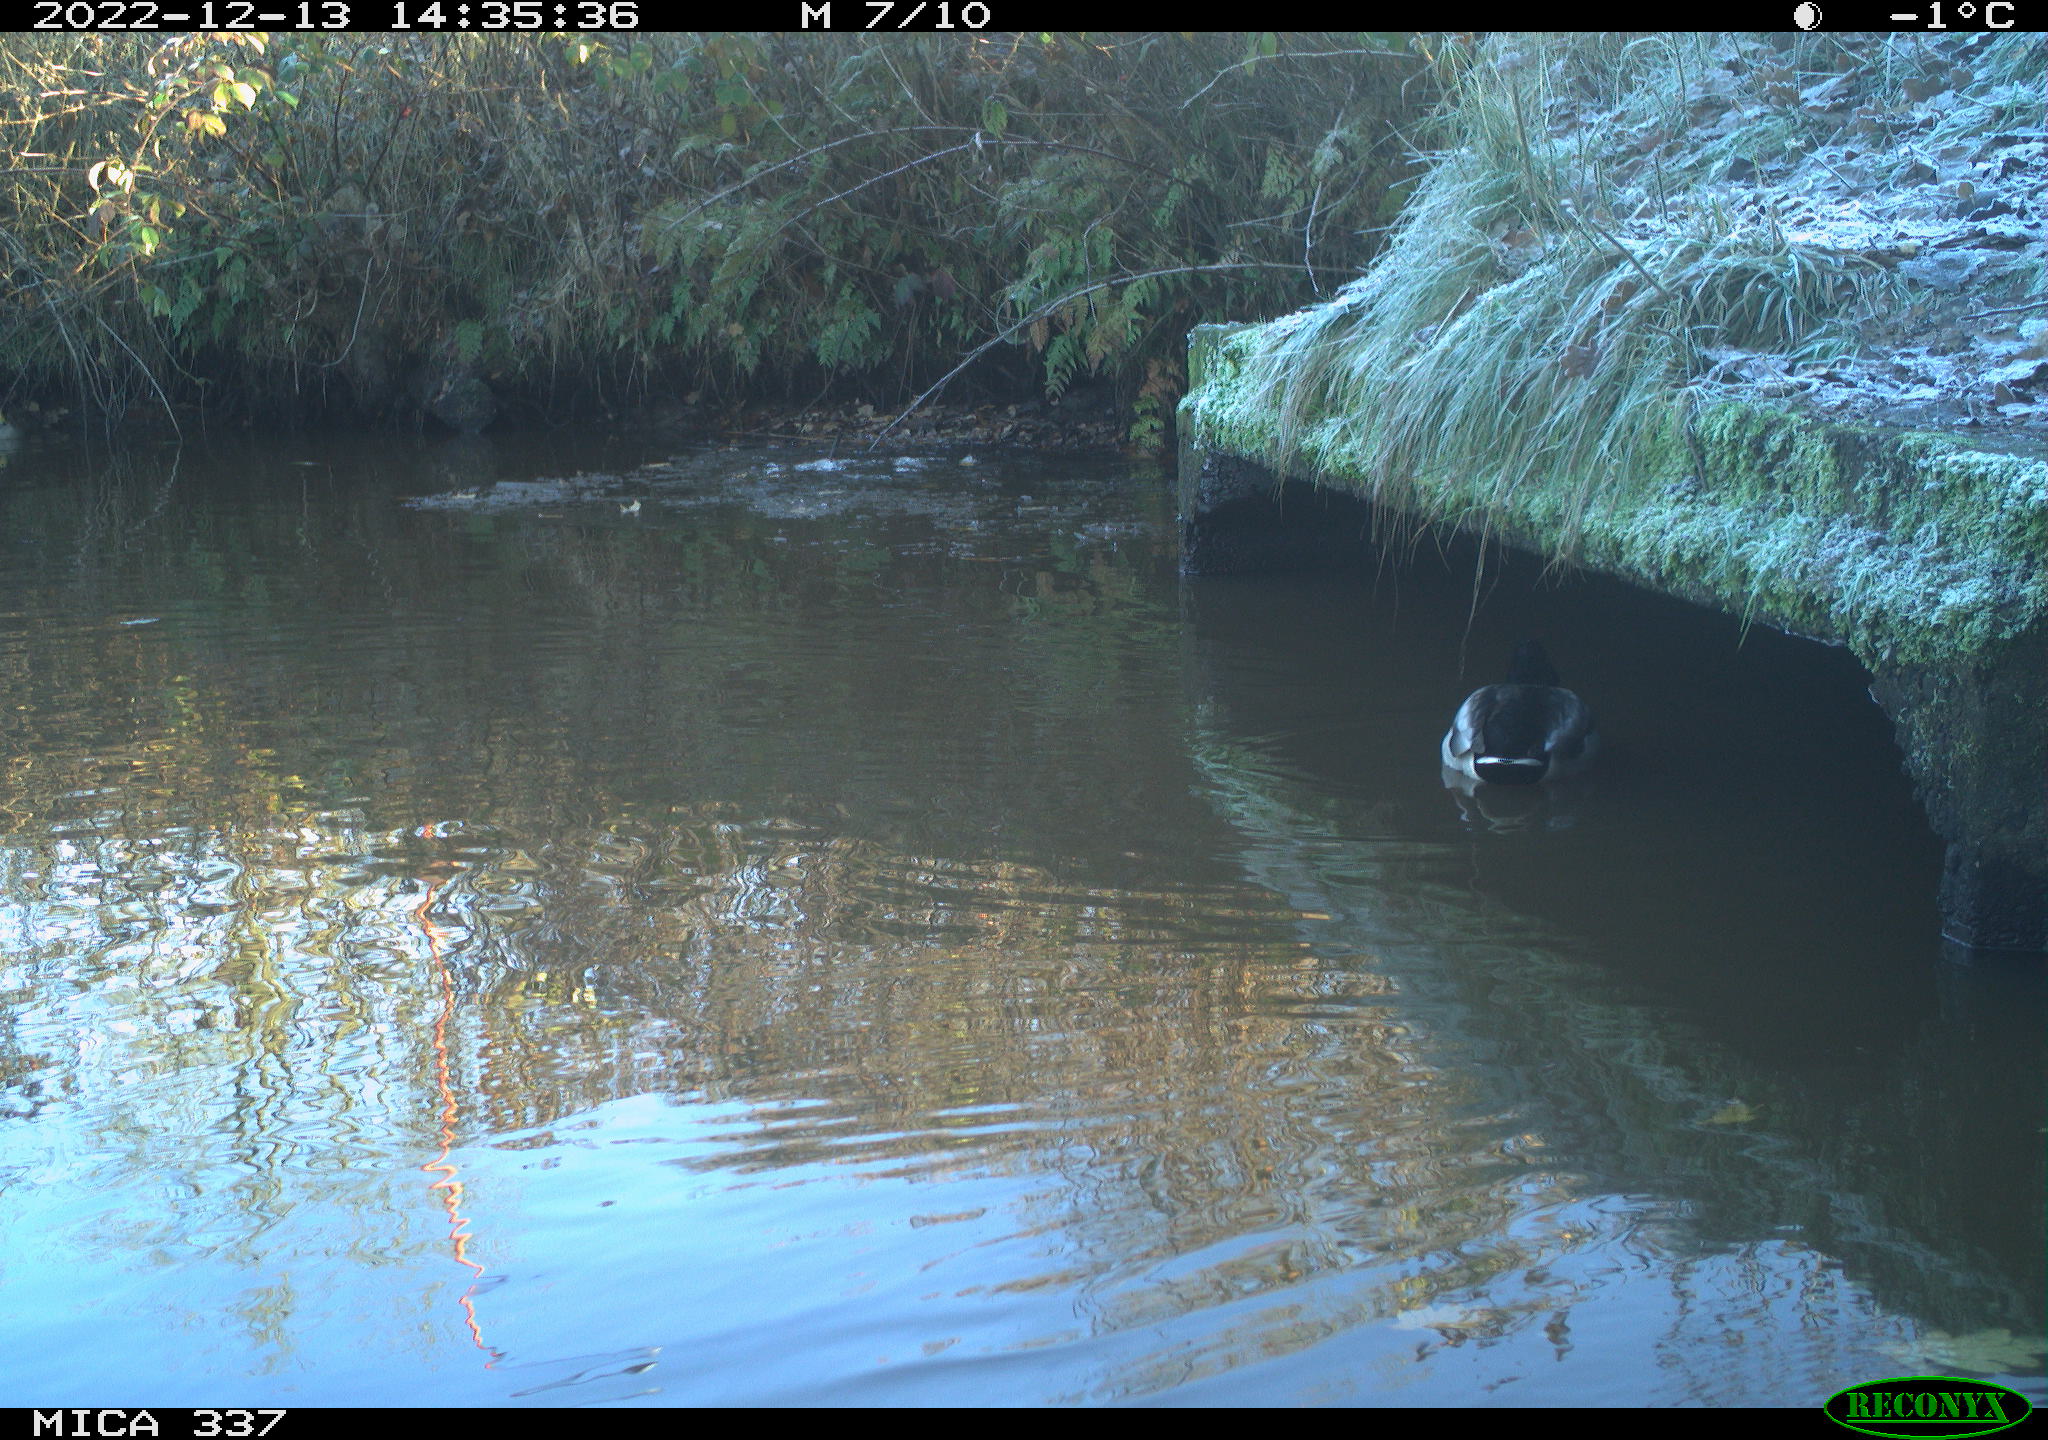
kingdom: Animalia
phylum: Chordata
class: Aves
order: Anseriformes
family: Anatidae
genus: Anas
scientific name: Anas
